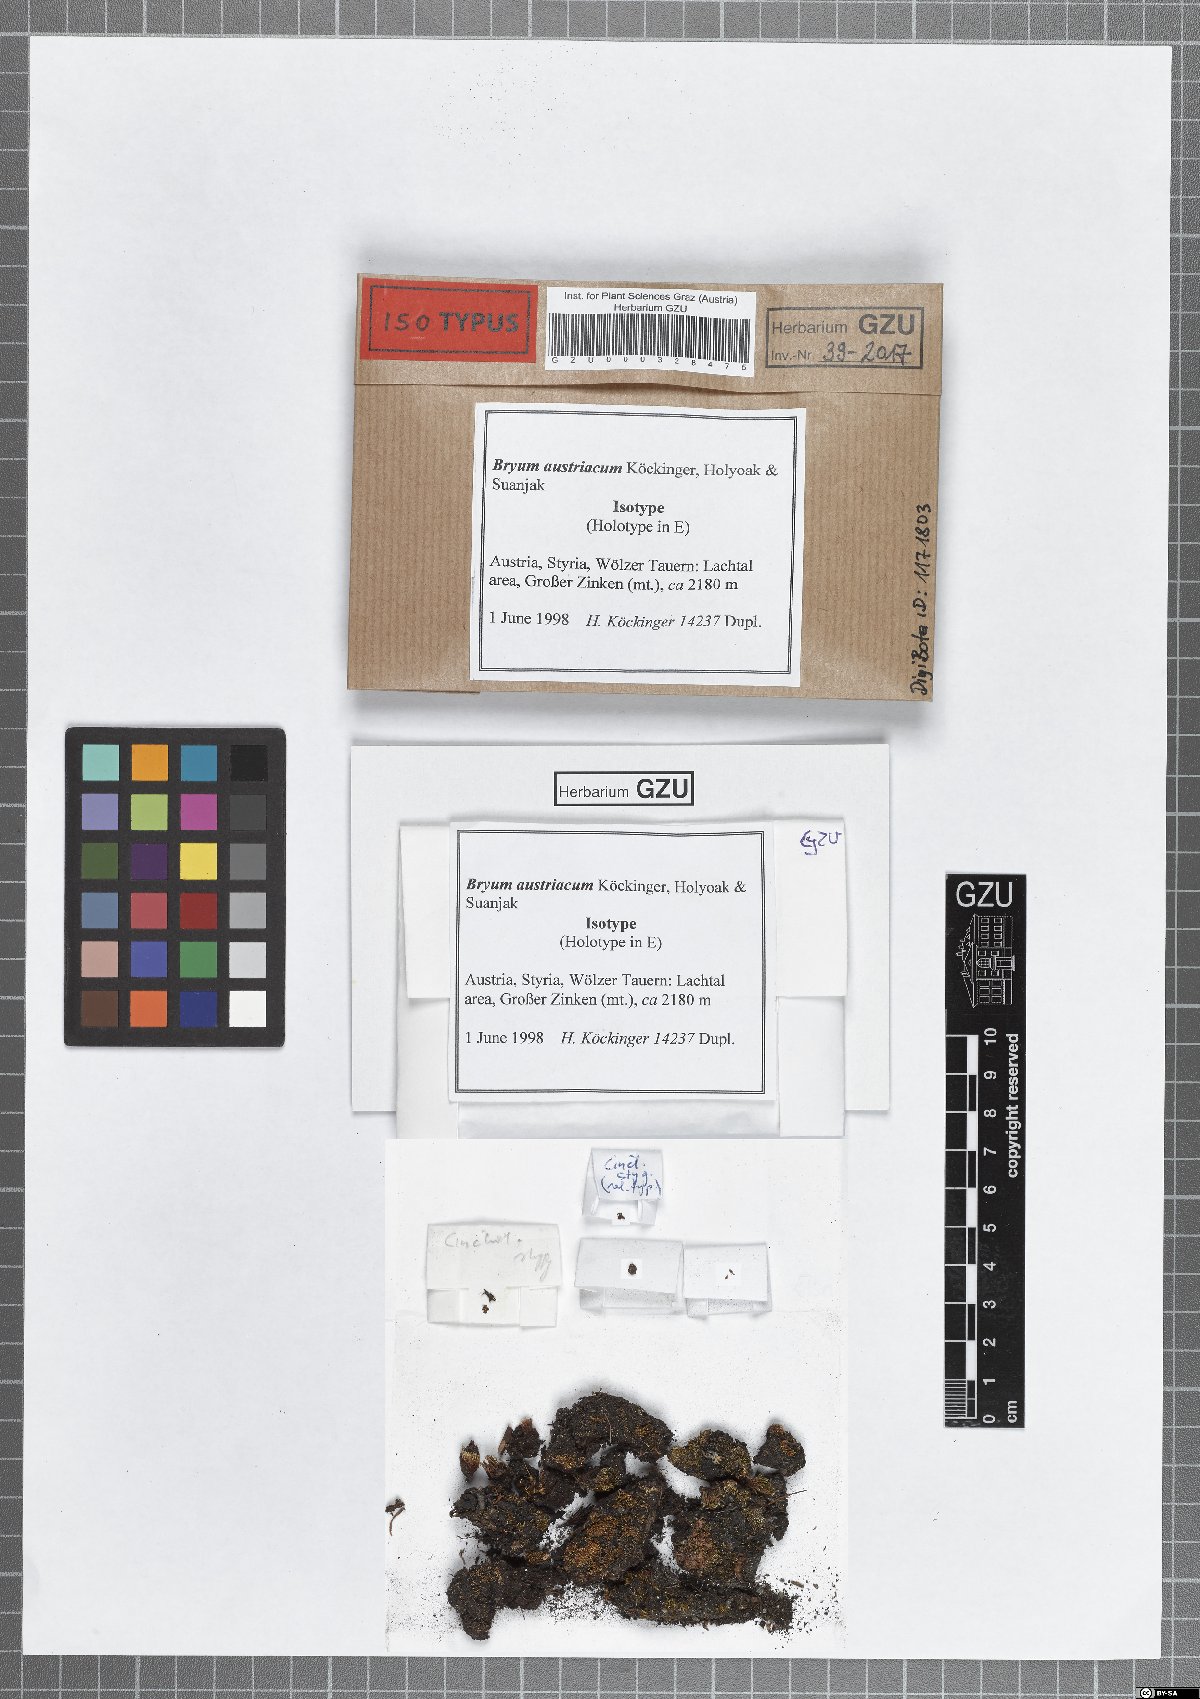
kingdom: Plantae
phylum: Bryophyta
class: Bryopsida
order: Bryales
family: Bryaceae
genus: Ptychostomum
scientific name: Ptychostomum austriacum
